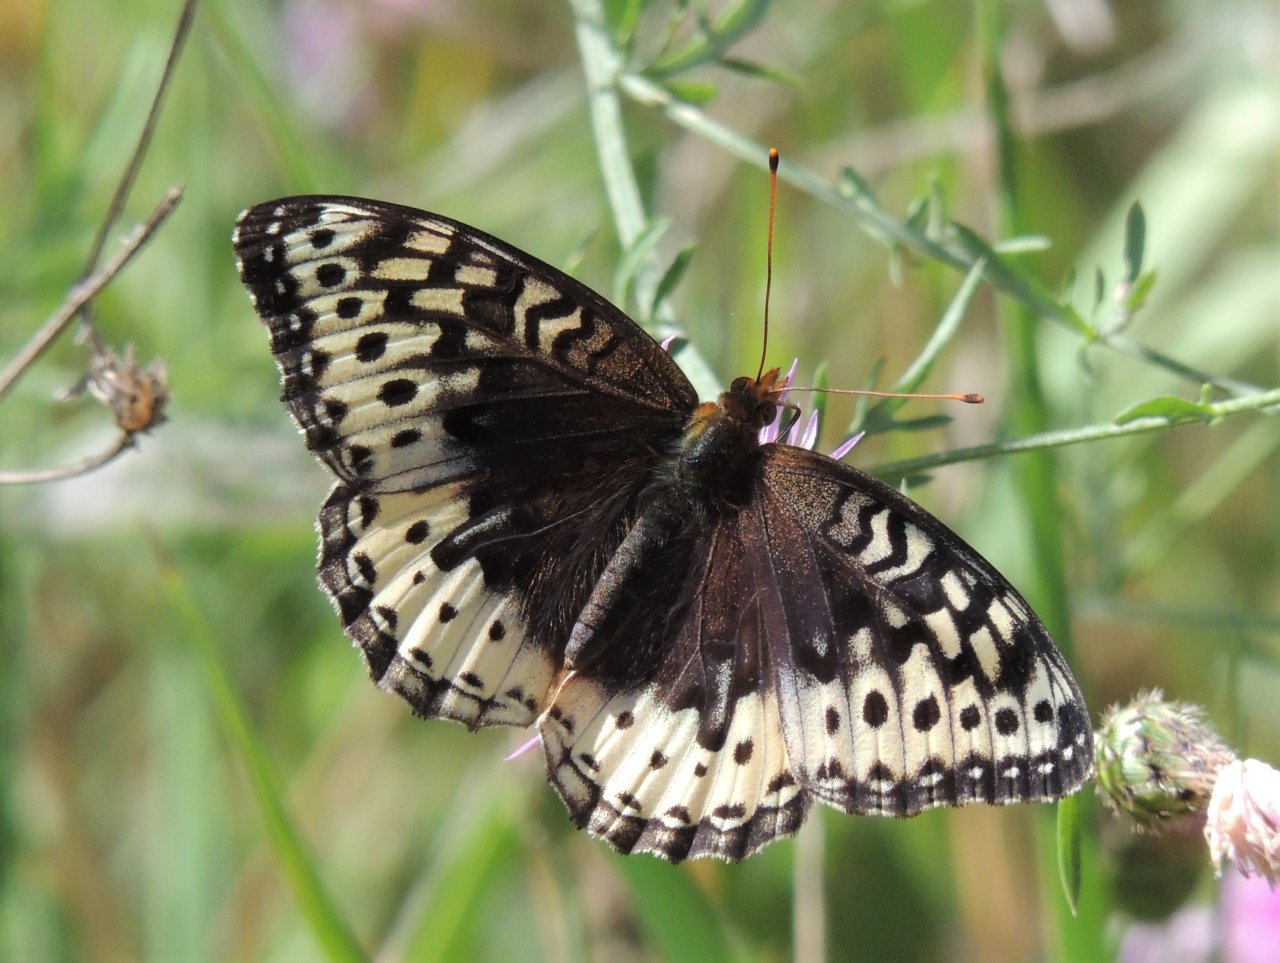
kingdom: Animalia
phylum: Arthropoda
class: Insecta
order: Lepidoptera
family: Nymphalidae
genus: Speyeria
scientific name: Speyeria cybele
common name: Great Spangled Fritillary
